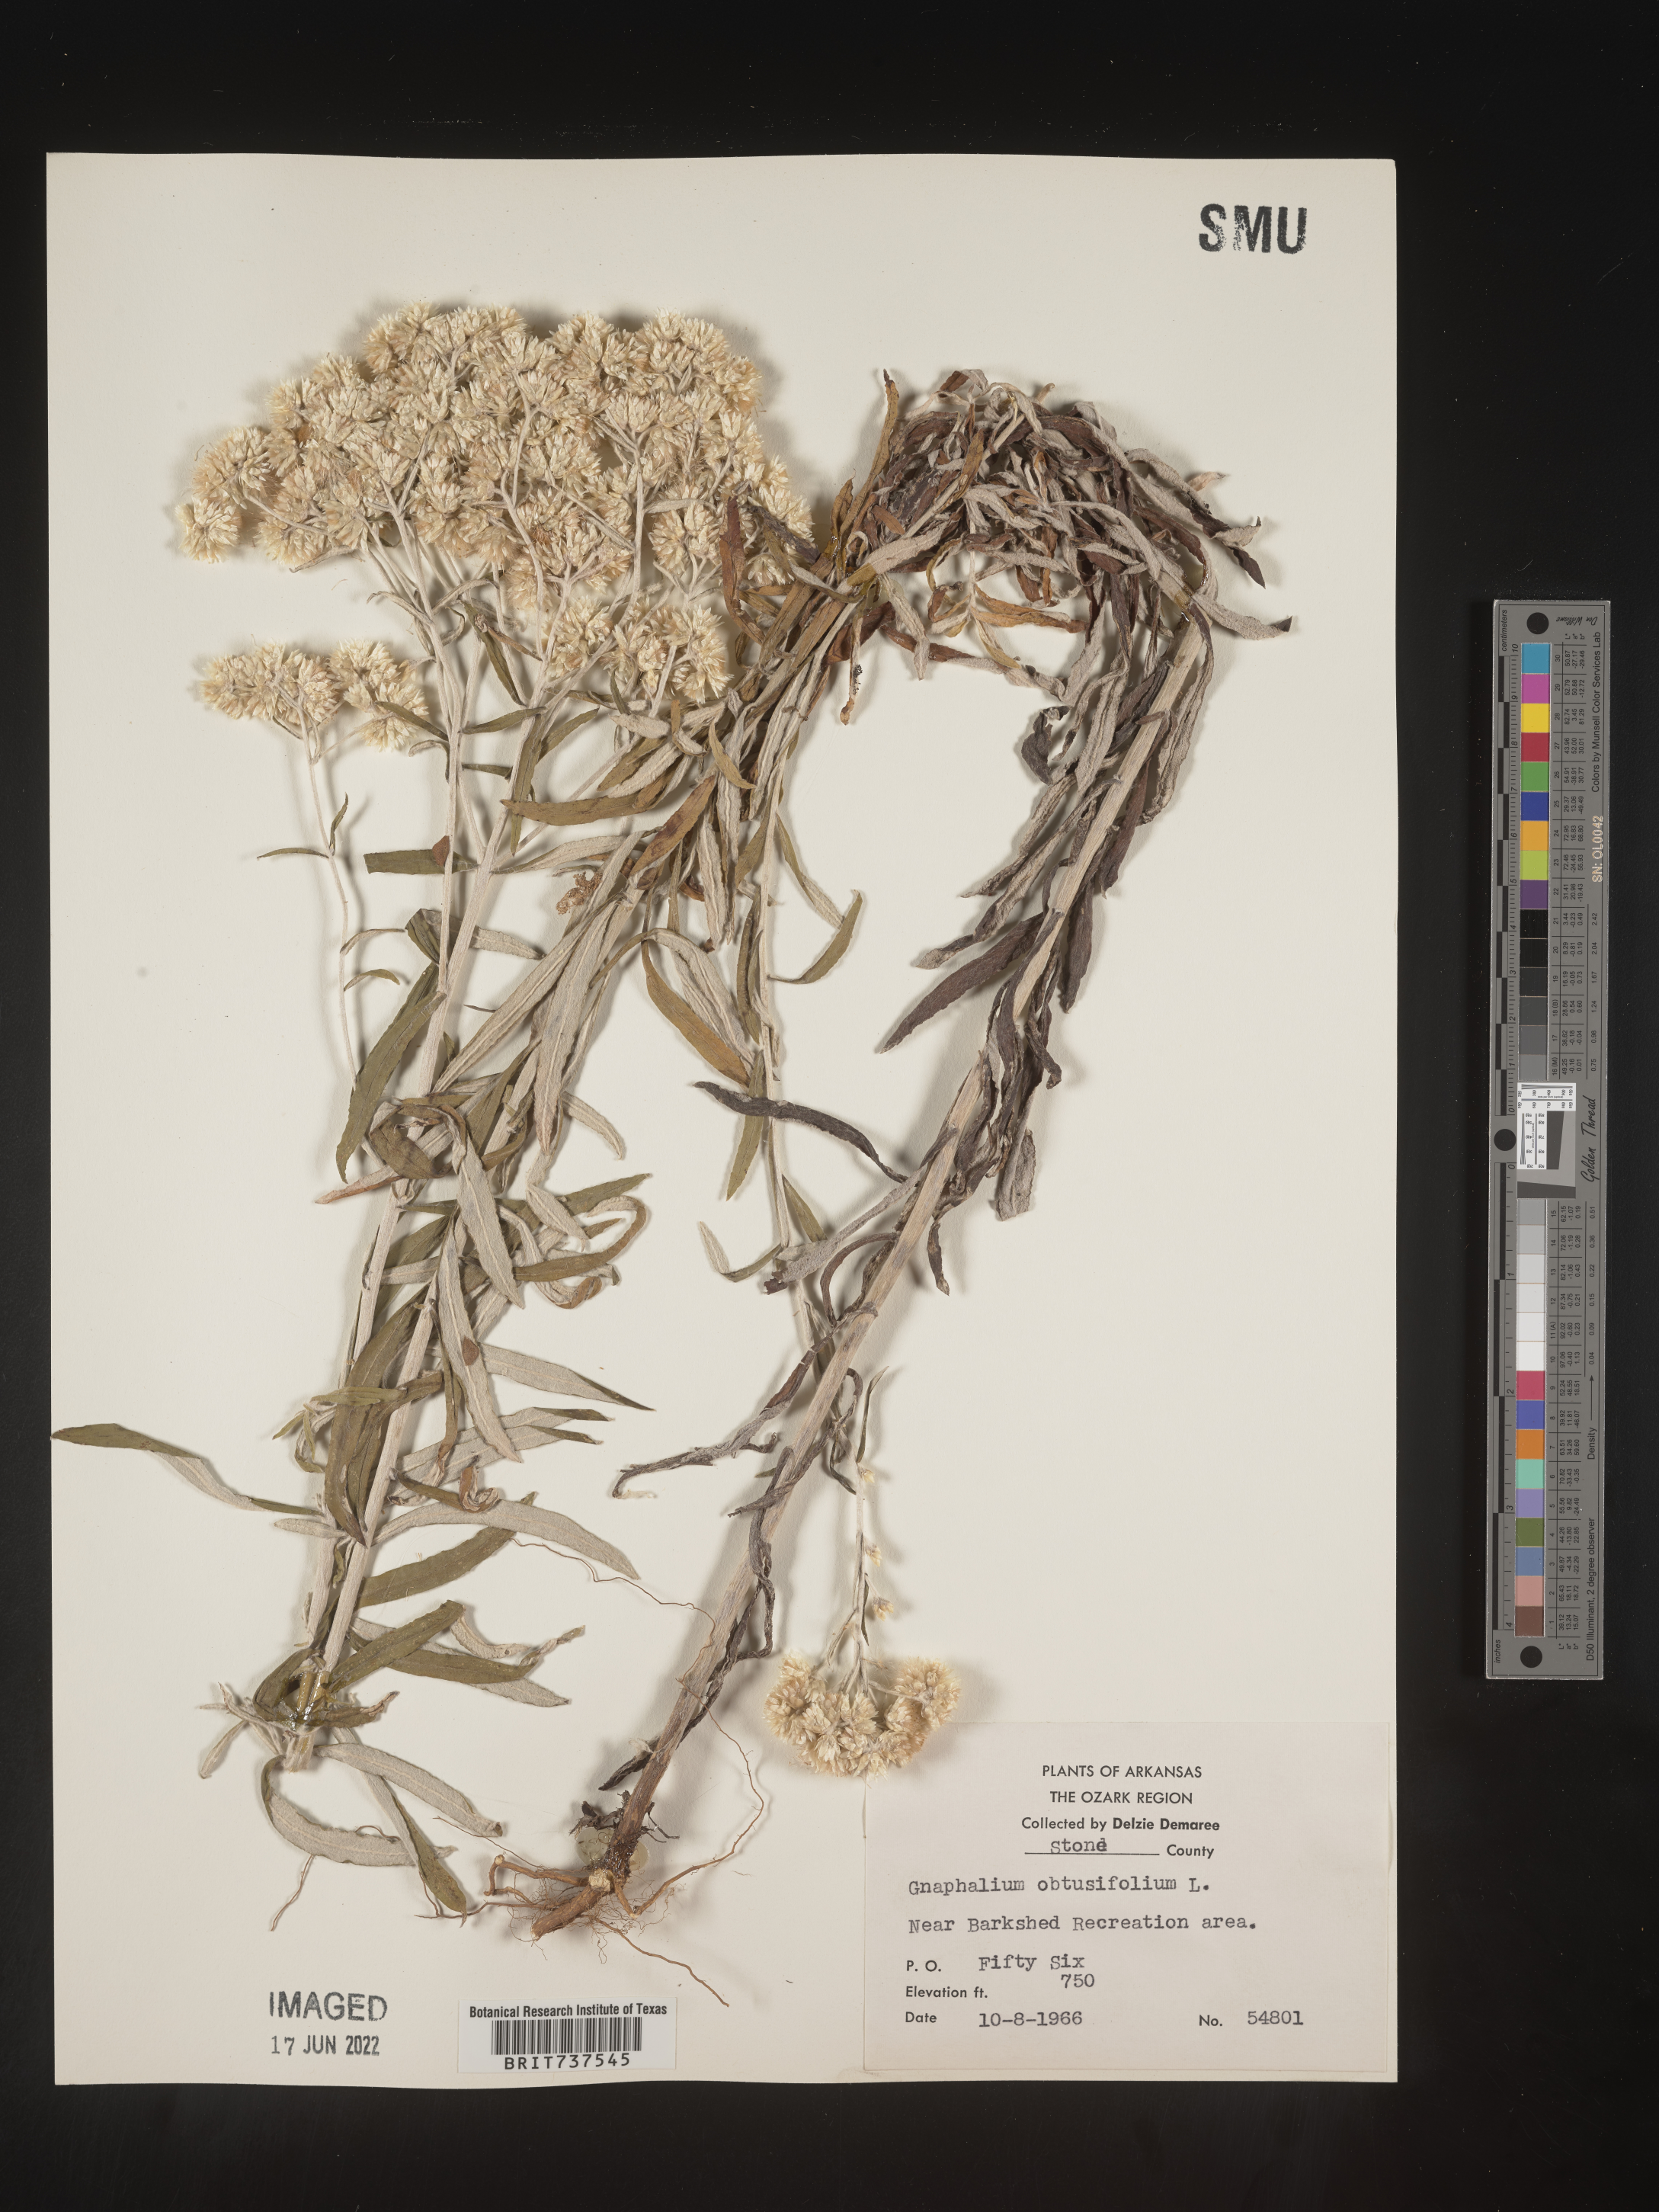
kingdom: Plantae
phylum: Tracheophyta
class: Magnoliopsida
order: Asterales
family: Asteraceae
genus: Pseudognaphalium
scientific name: Pseudognaphalium obtusifolium
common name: Eastern rabbit-tobacco
